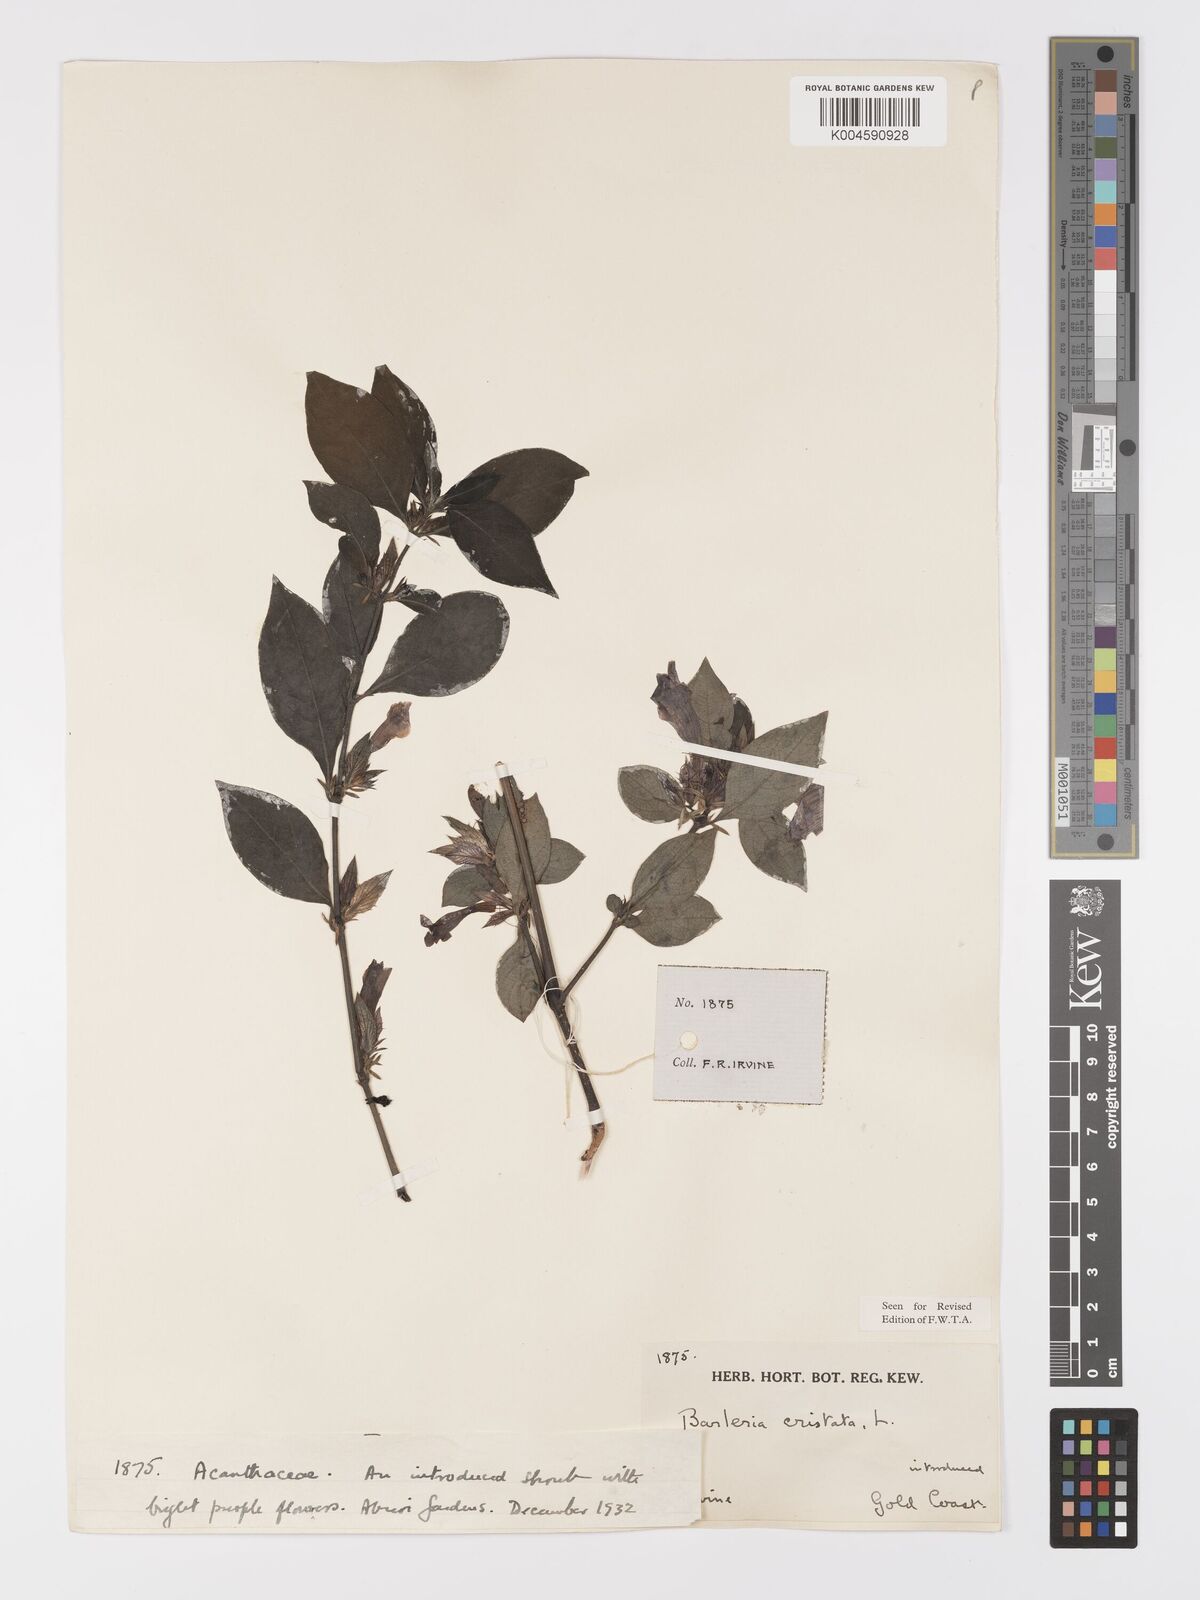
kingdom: Plantae
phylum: Tracheophyta
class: Magnoliopsida
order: Lamiales
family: Acanthaceae
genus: Barleria
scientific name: Barleria cristata
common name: Crested philippine violet
